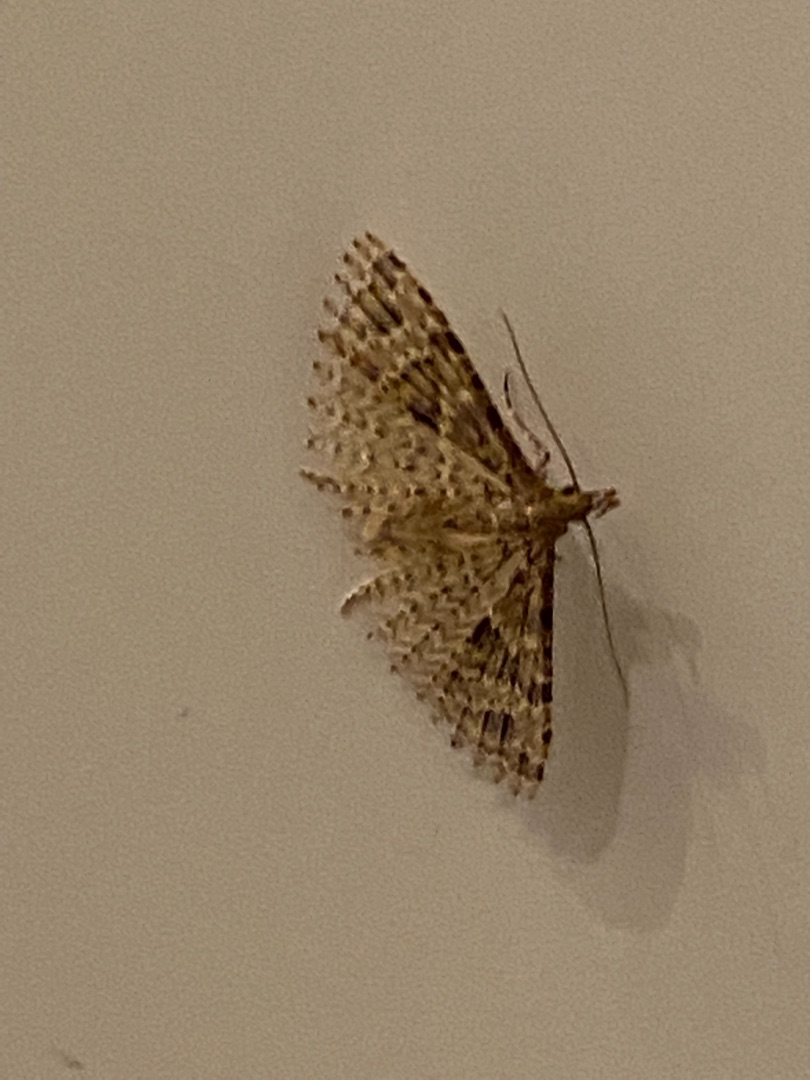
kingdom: Animalia
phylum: Arthropoda
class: Insecta
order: Lepidoptera
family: Alucitidae
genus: Alucita
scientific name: Alucita hexadactyla
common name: Kaprifoliefjermøl
